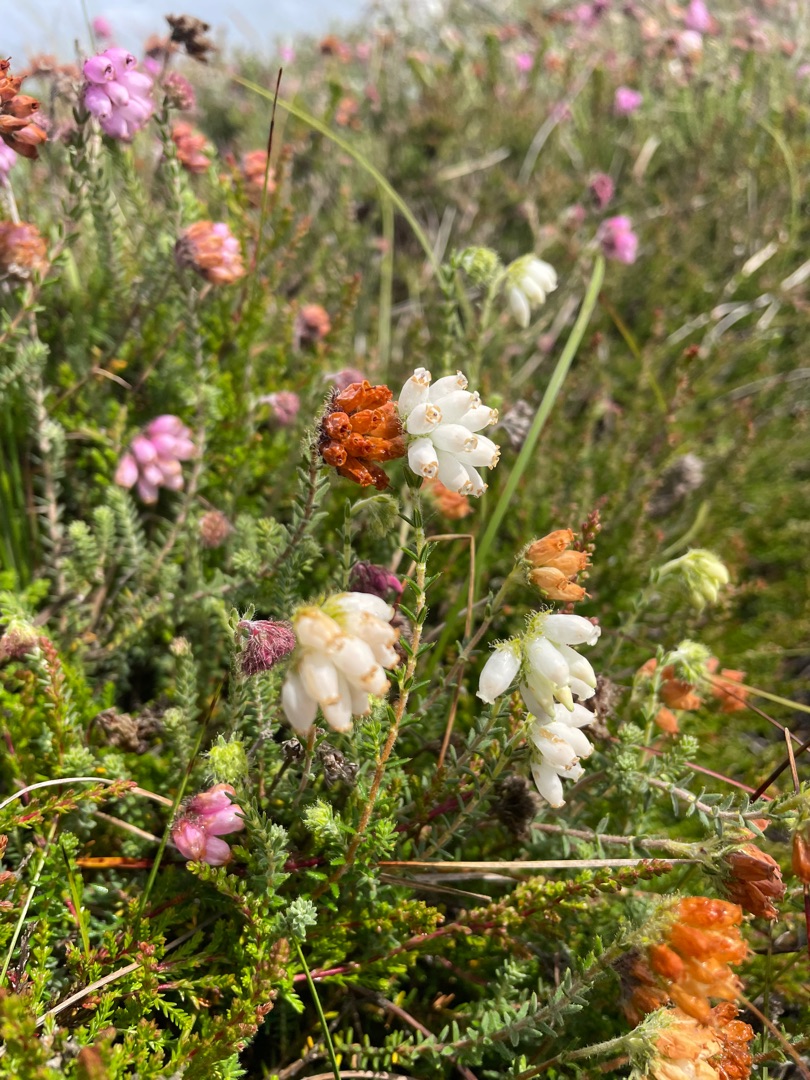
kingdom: Plantae
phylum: Tracheophyta
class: Magnoliopsida
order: Ericales
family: Ericaceae
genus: Erica
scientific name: Erica tetralix
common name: Klokkelyng
